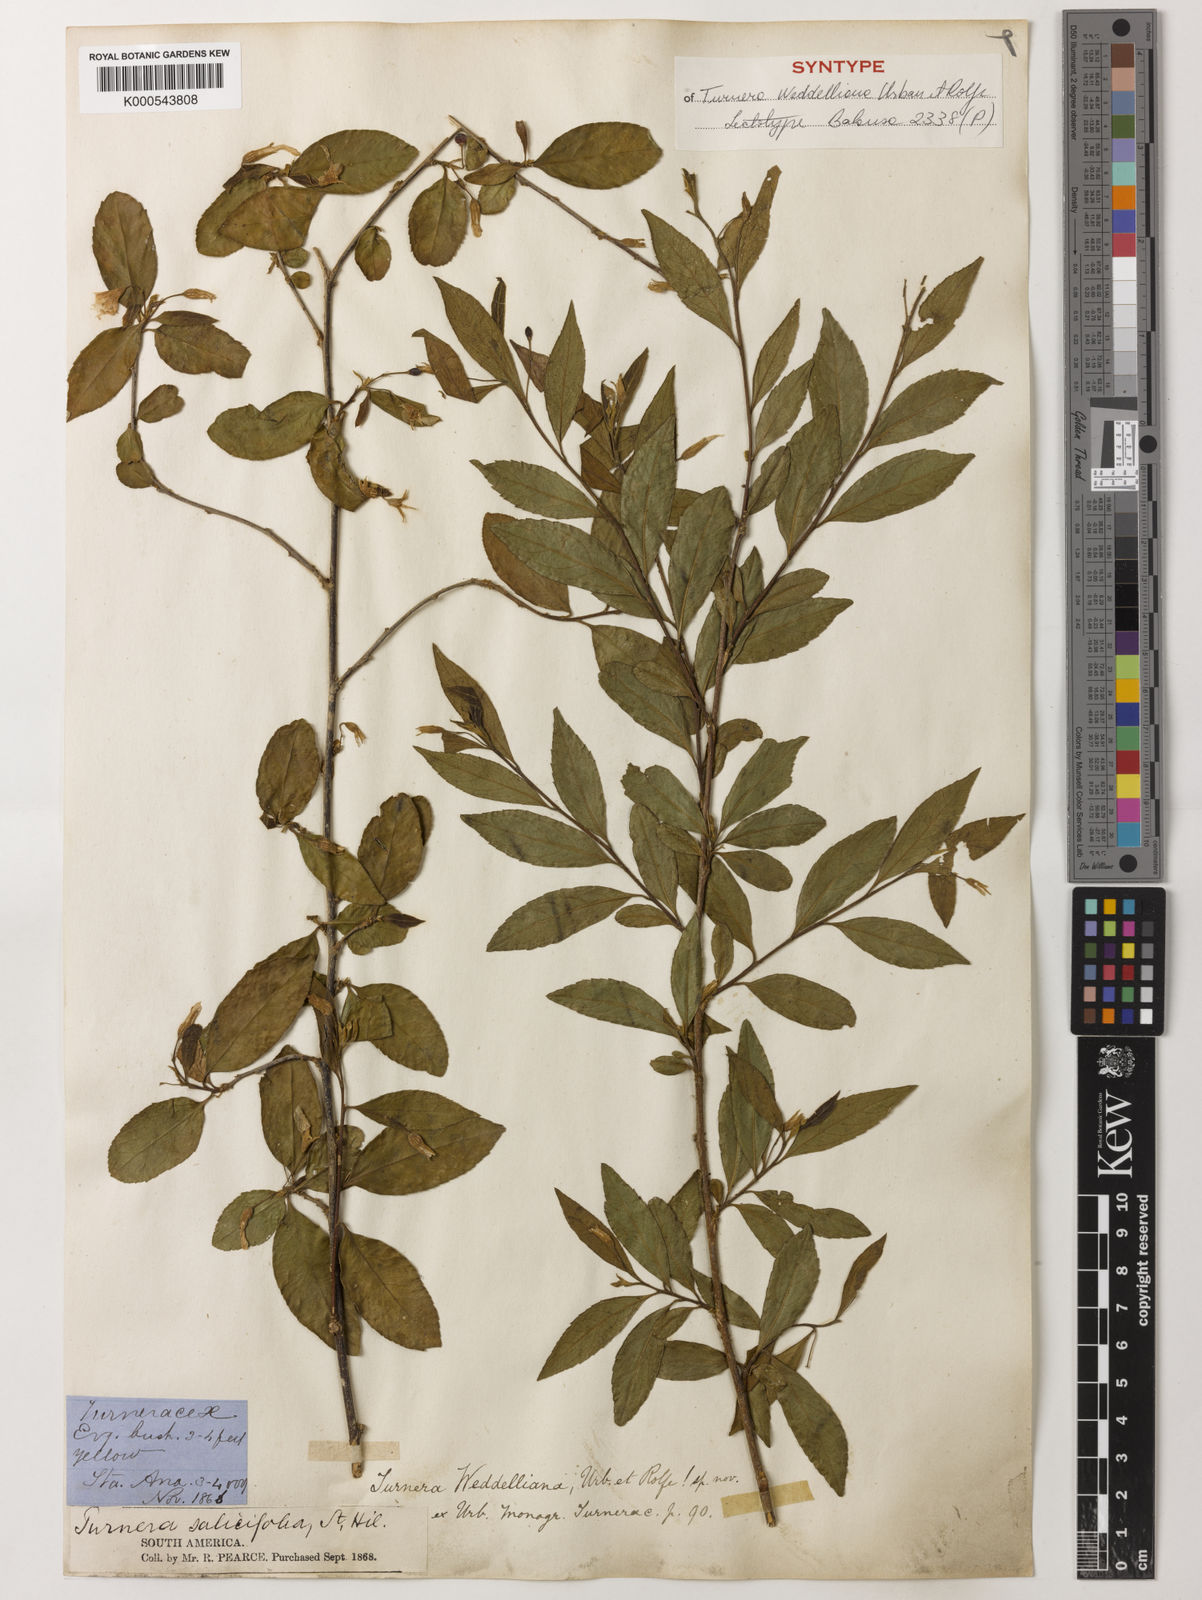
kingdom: Plantae
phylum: Tracheophyta
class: Magnoliopsida
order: Malpighiales
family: Turneraceae
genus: Turnera
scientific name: Turnera weddelliana
